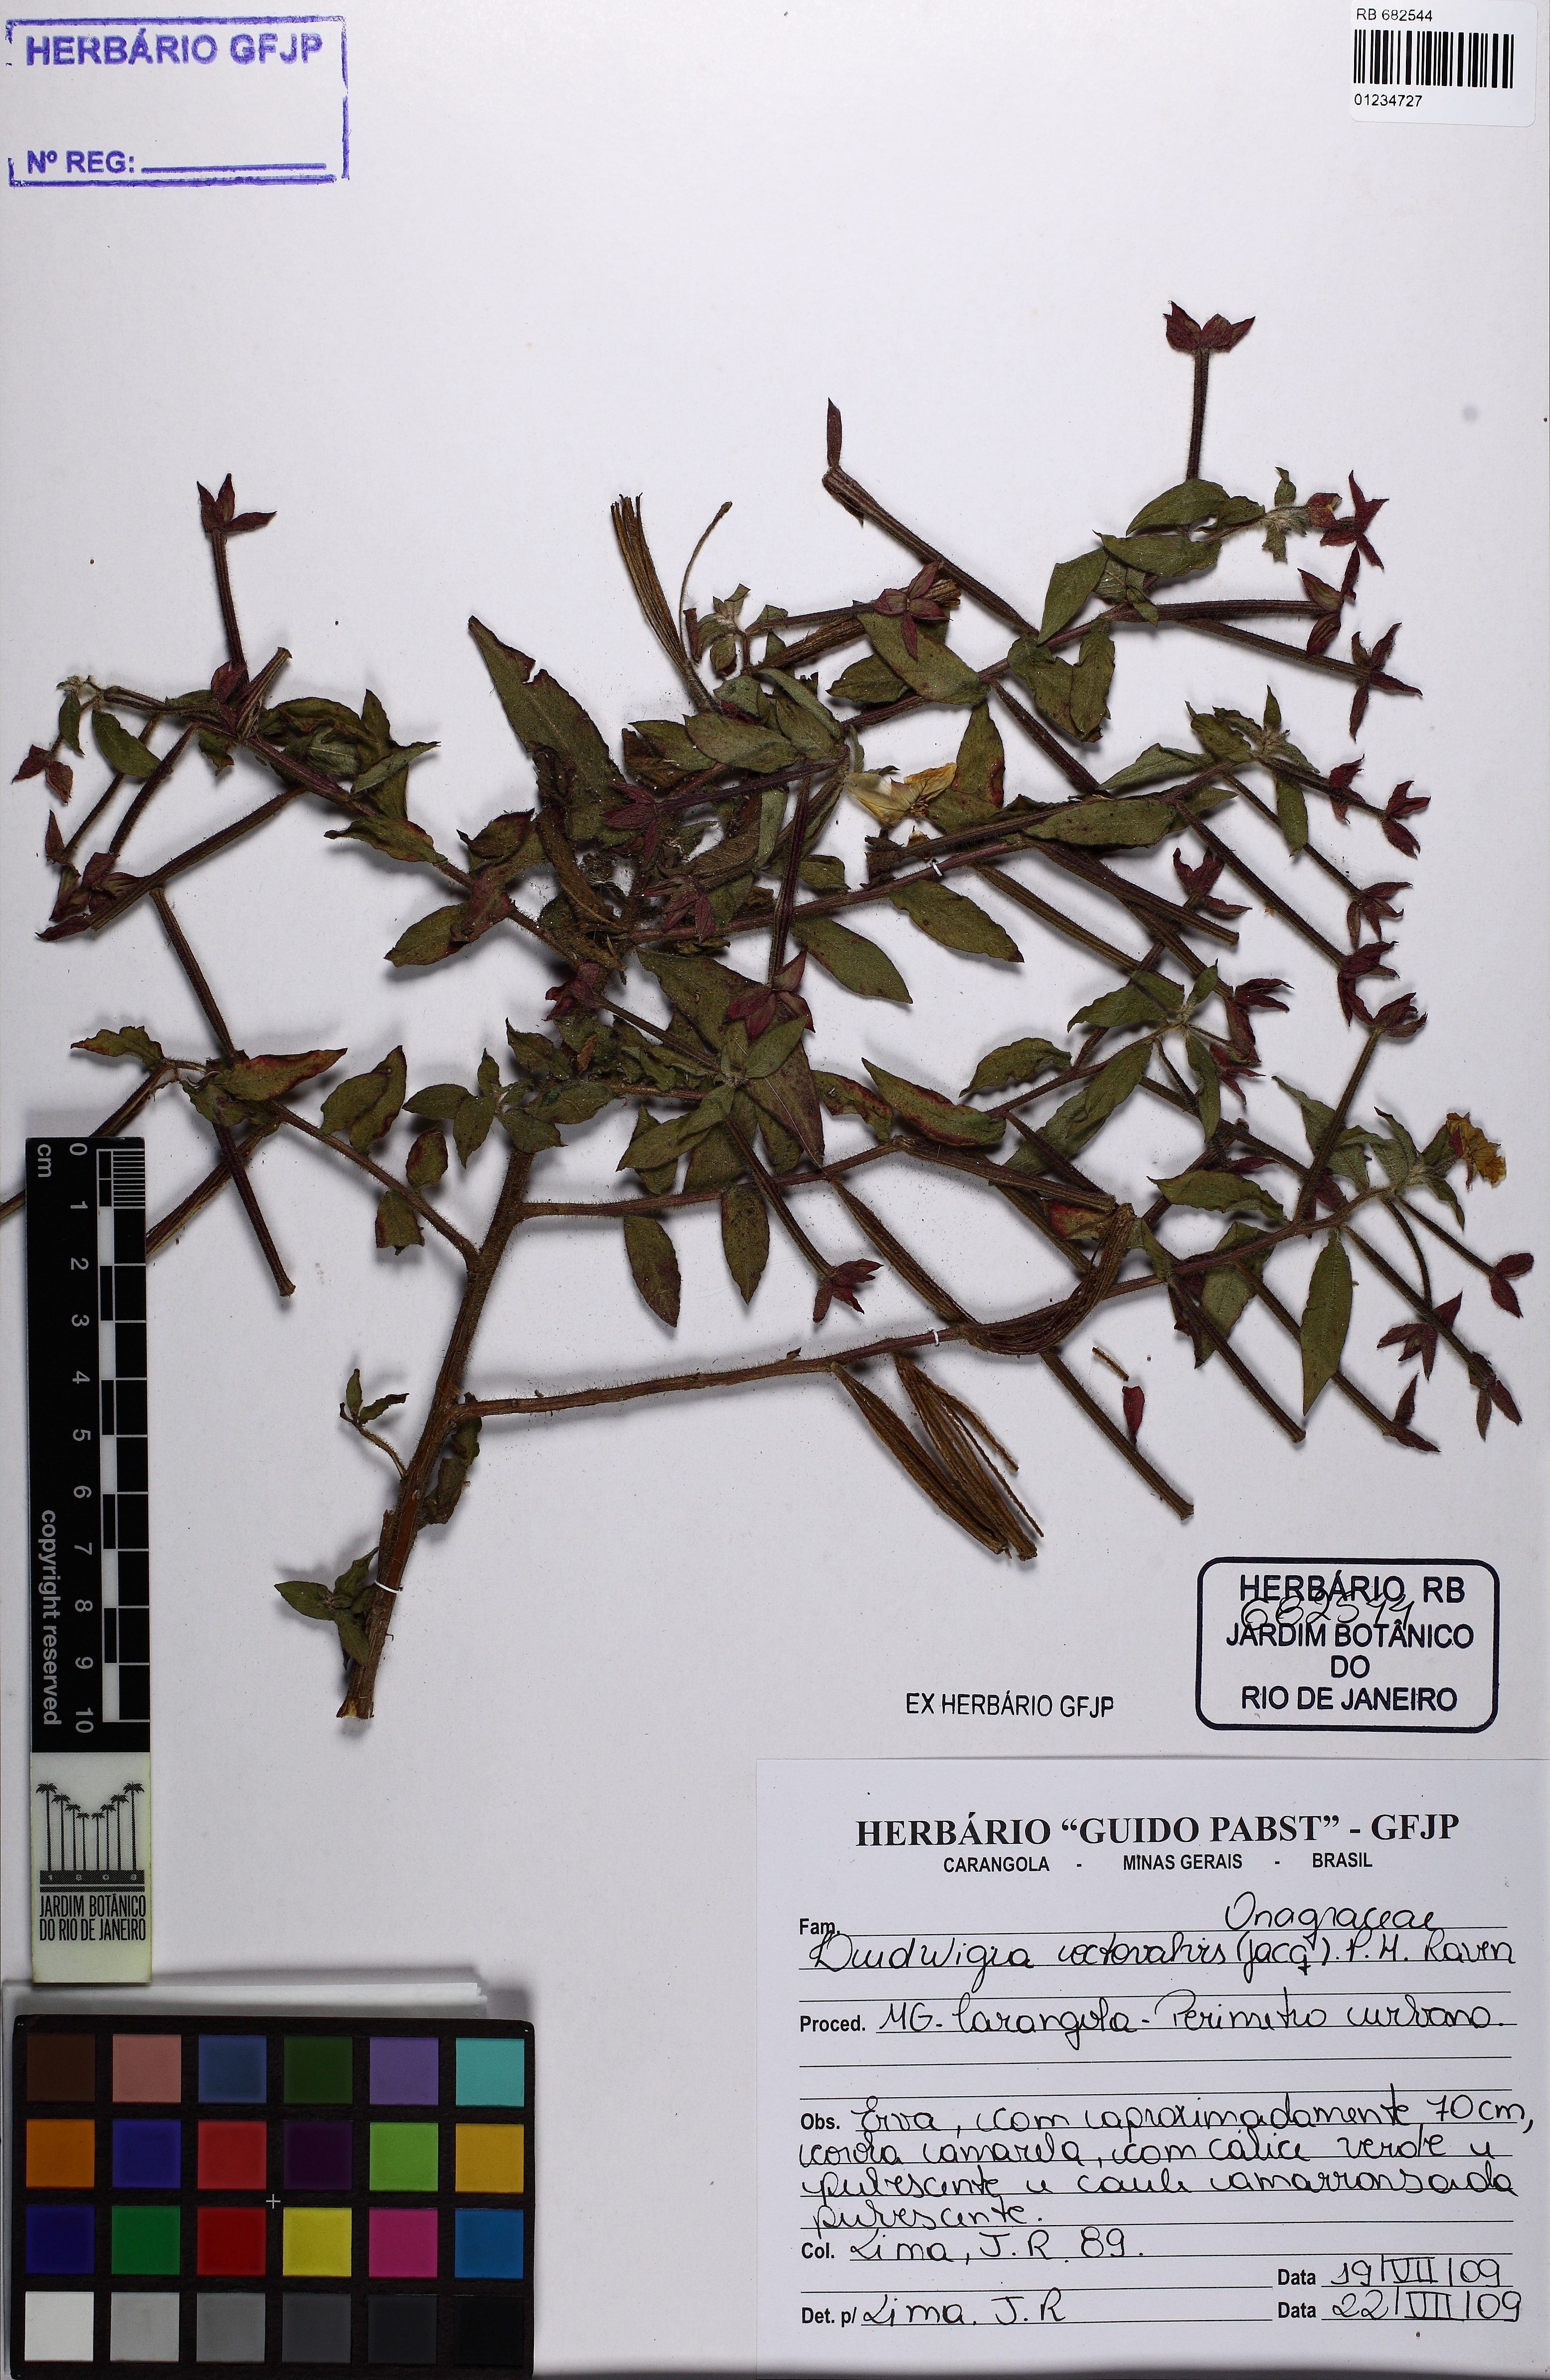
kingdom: Plantae
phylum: Tracheophyta
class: Magnoliopsida
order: Myrtales
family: Onagraceae
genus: Ludwigia
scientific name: Ludwigia octovalvis
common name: Water-primrose
